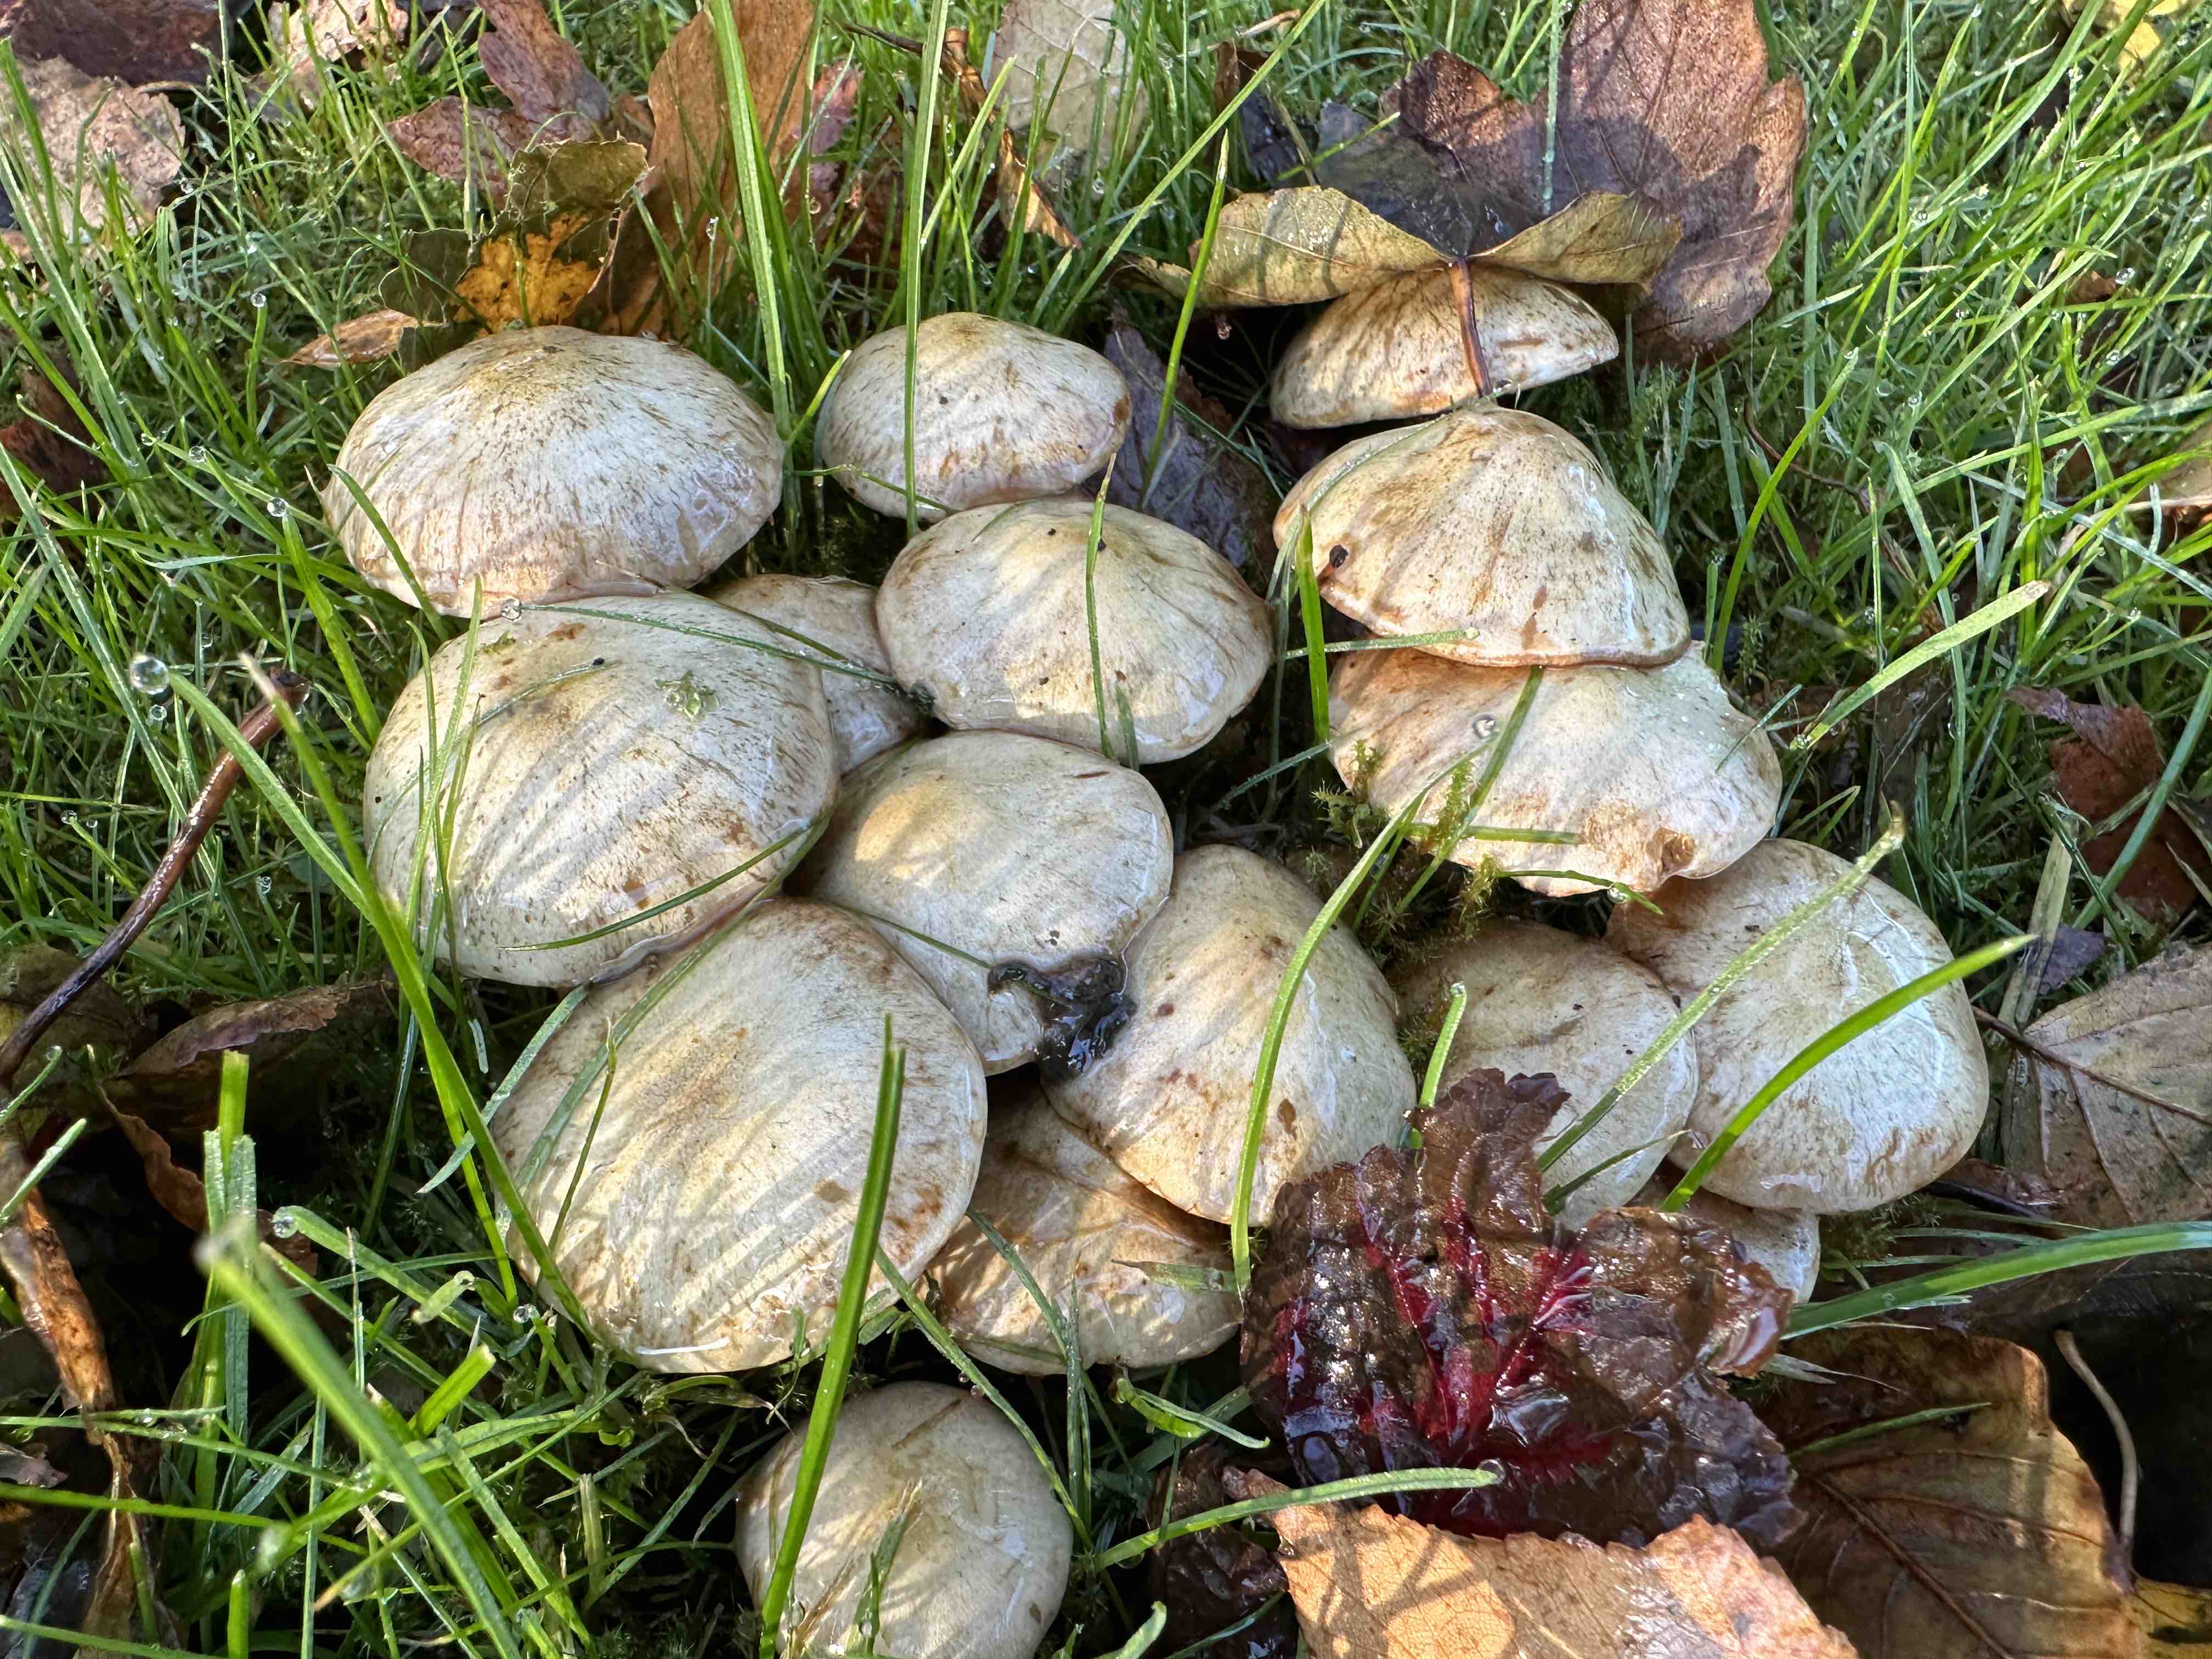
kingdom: Fungi
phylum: Basidiomycota
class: Agaricomycetes
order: Agaricales
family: Strophariaceae
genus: Pholiota
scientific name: Pholiota gummosa
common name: grøngul skælhat
